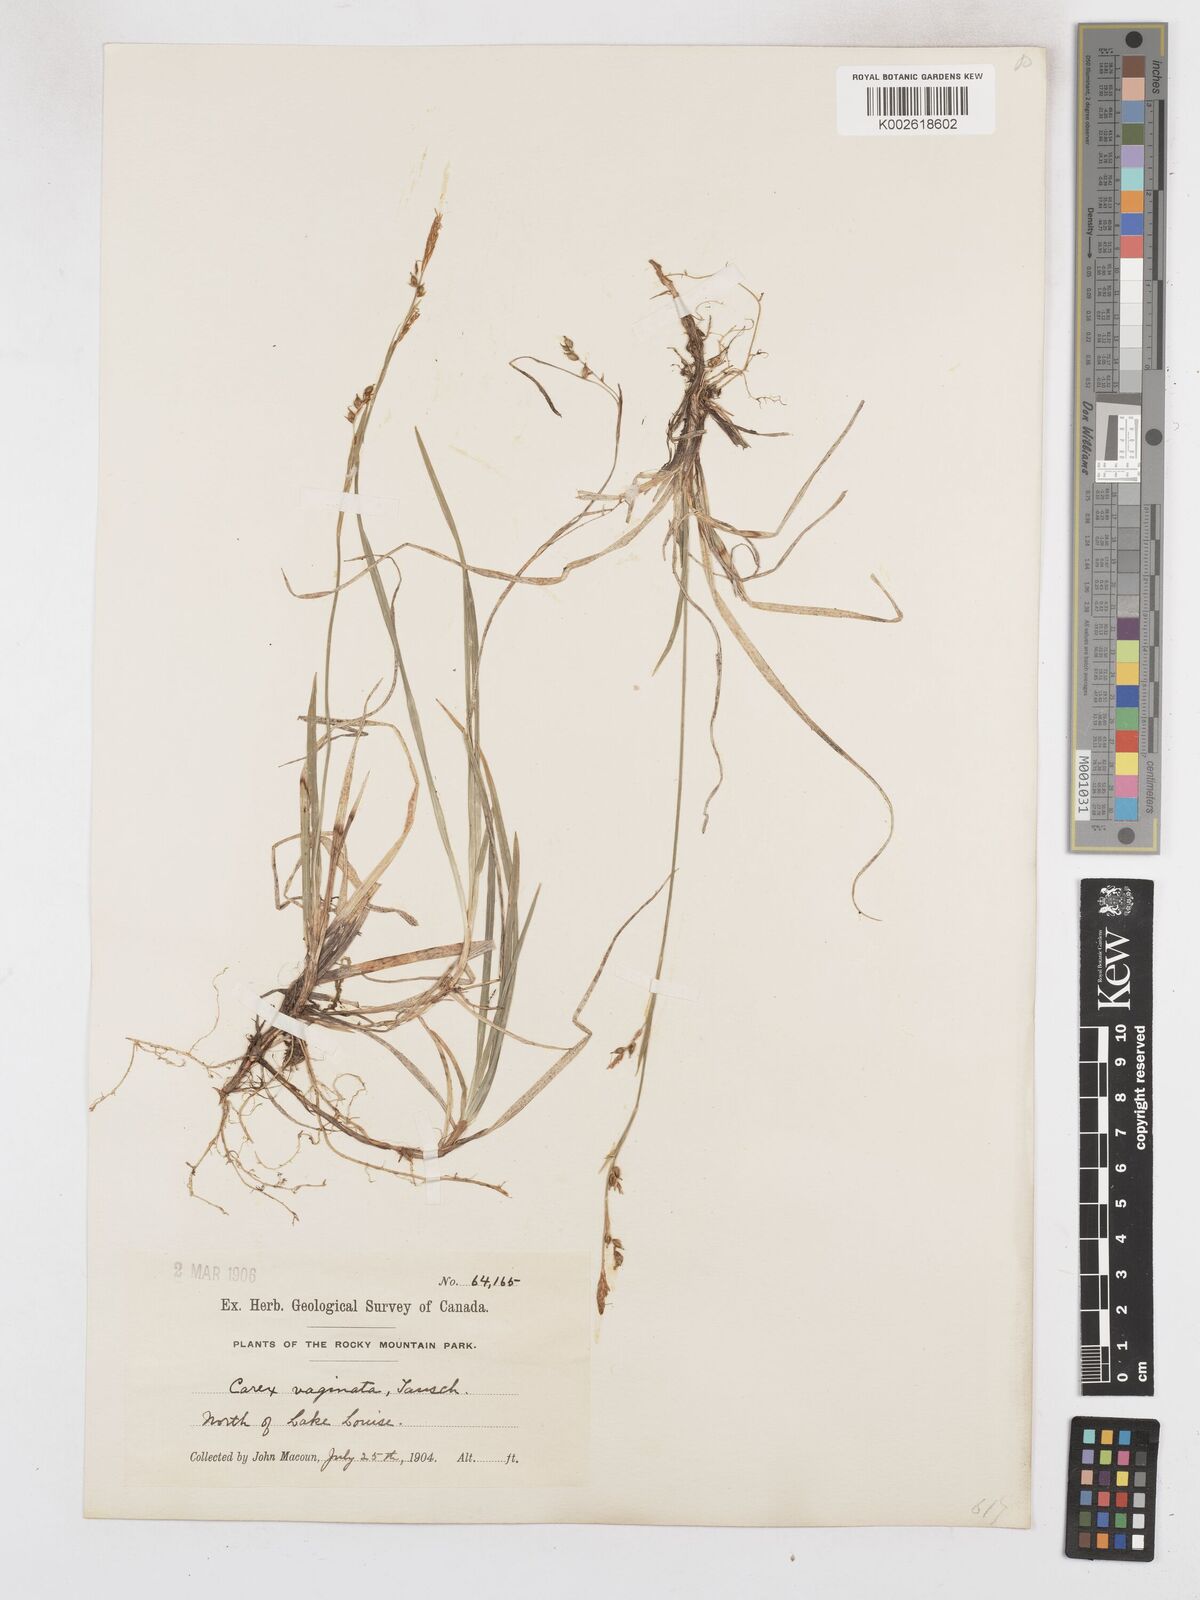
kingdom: Plantae
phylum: Tracheophyta
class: Liliopsida
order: Poales
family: Cyperaceae
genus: Carex
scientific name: Carex vaginata
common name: Sheathed sedge
